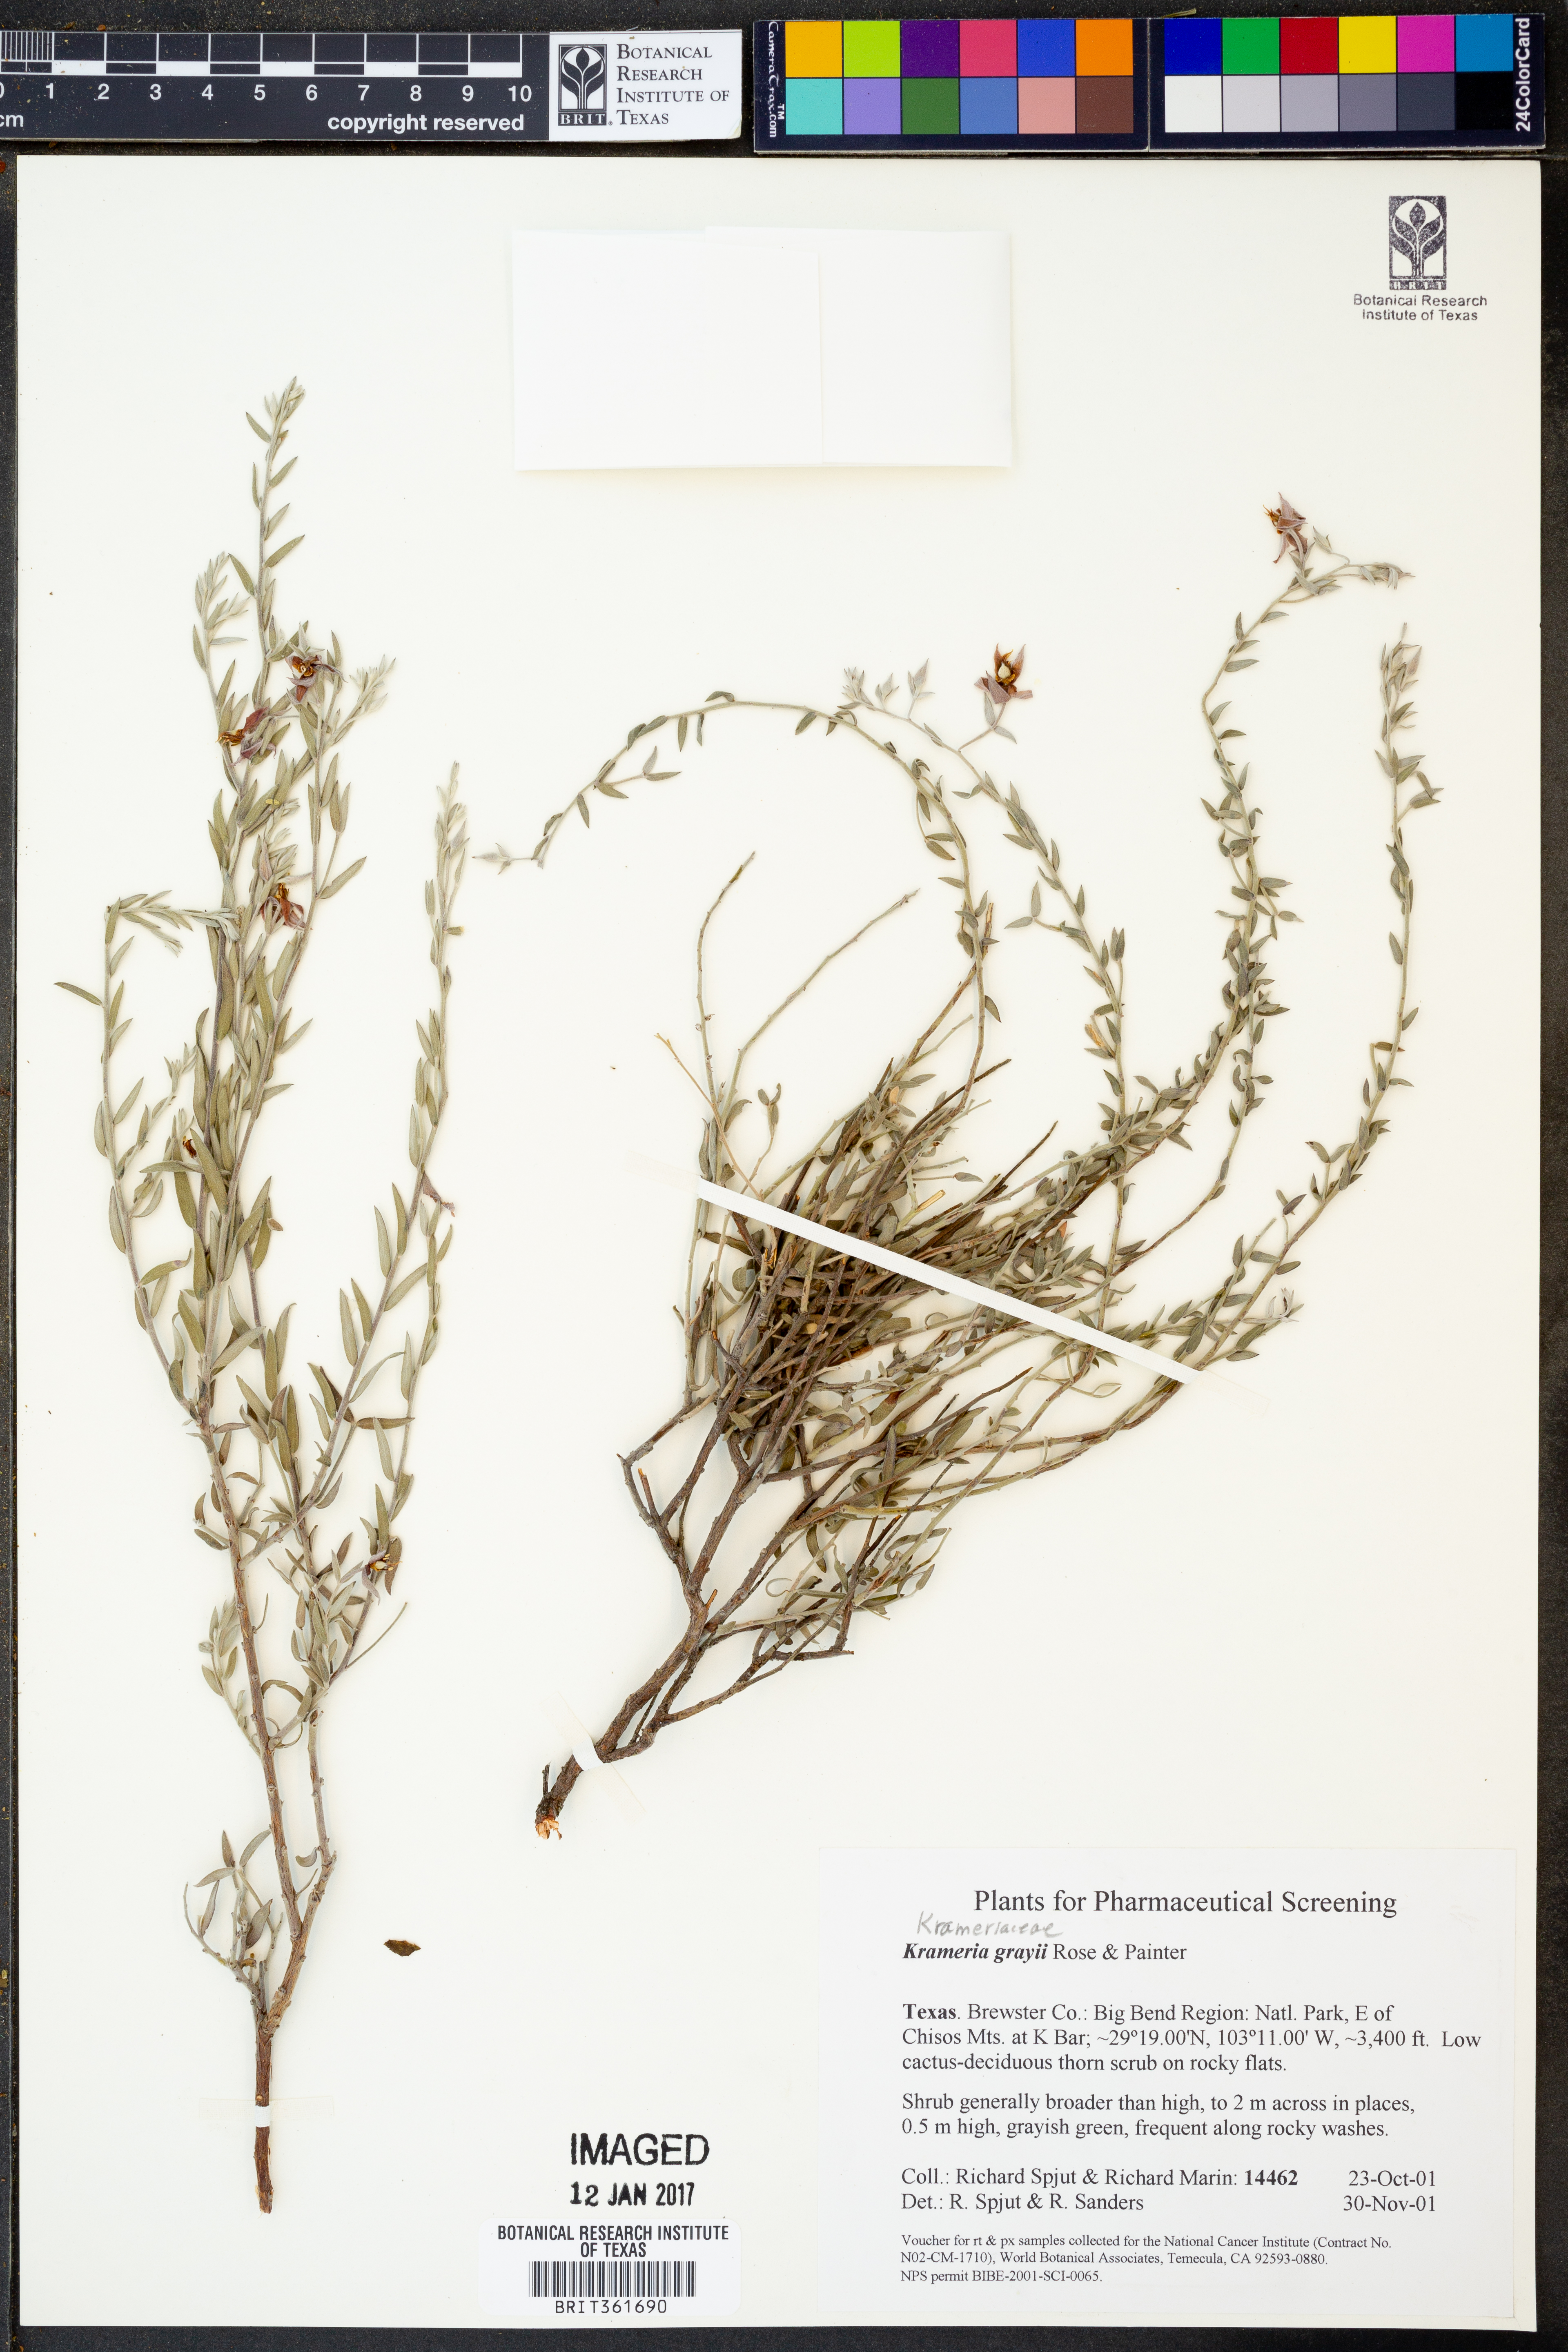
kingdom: Plantae
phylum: Tracheophyta
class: Magnoliopsida
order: Zygophyllales
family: Krameriaceae
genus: Krameria
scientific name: Krameria bicolor
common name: White ratany
